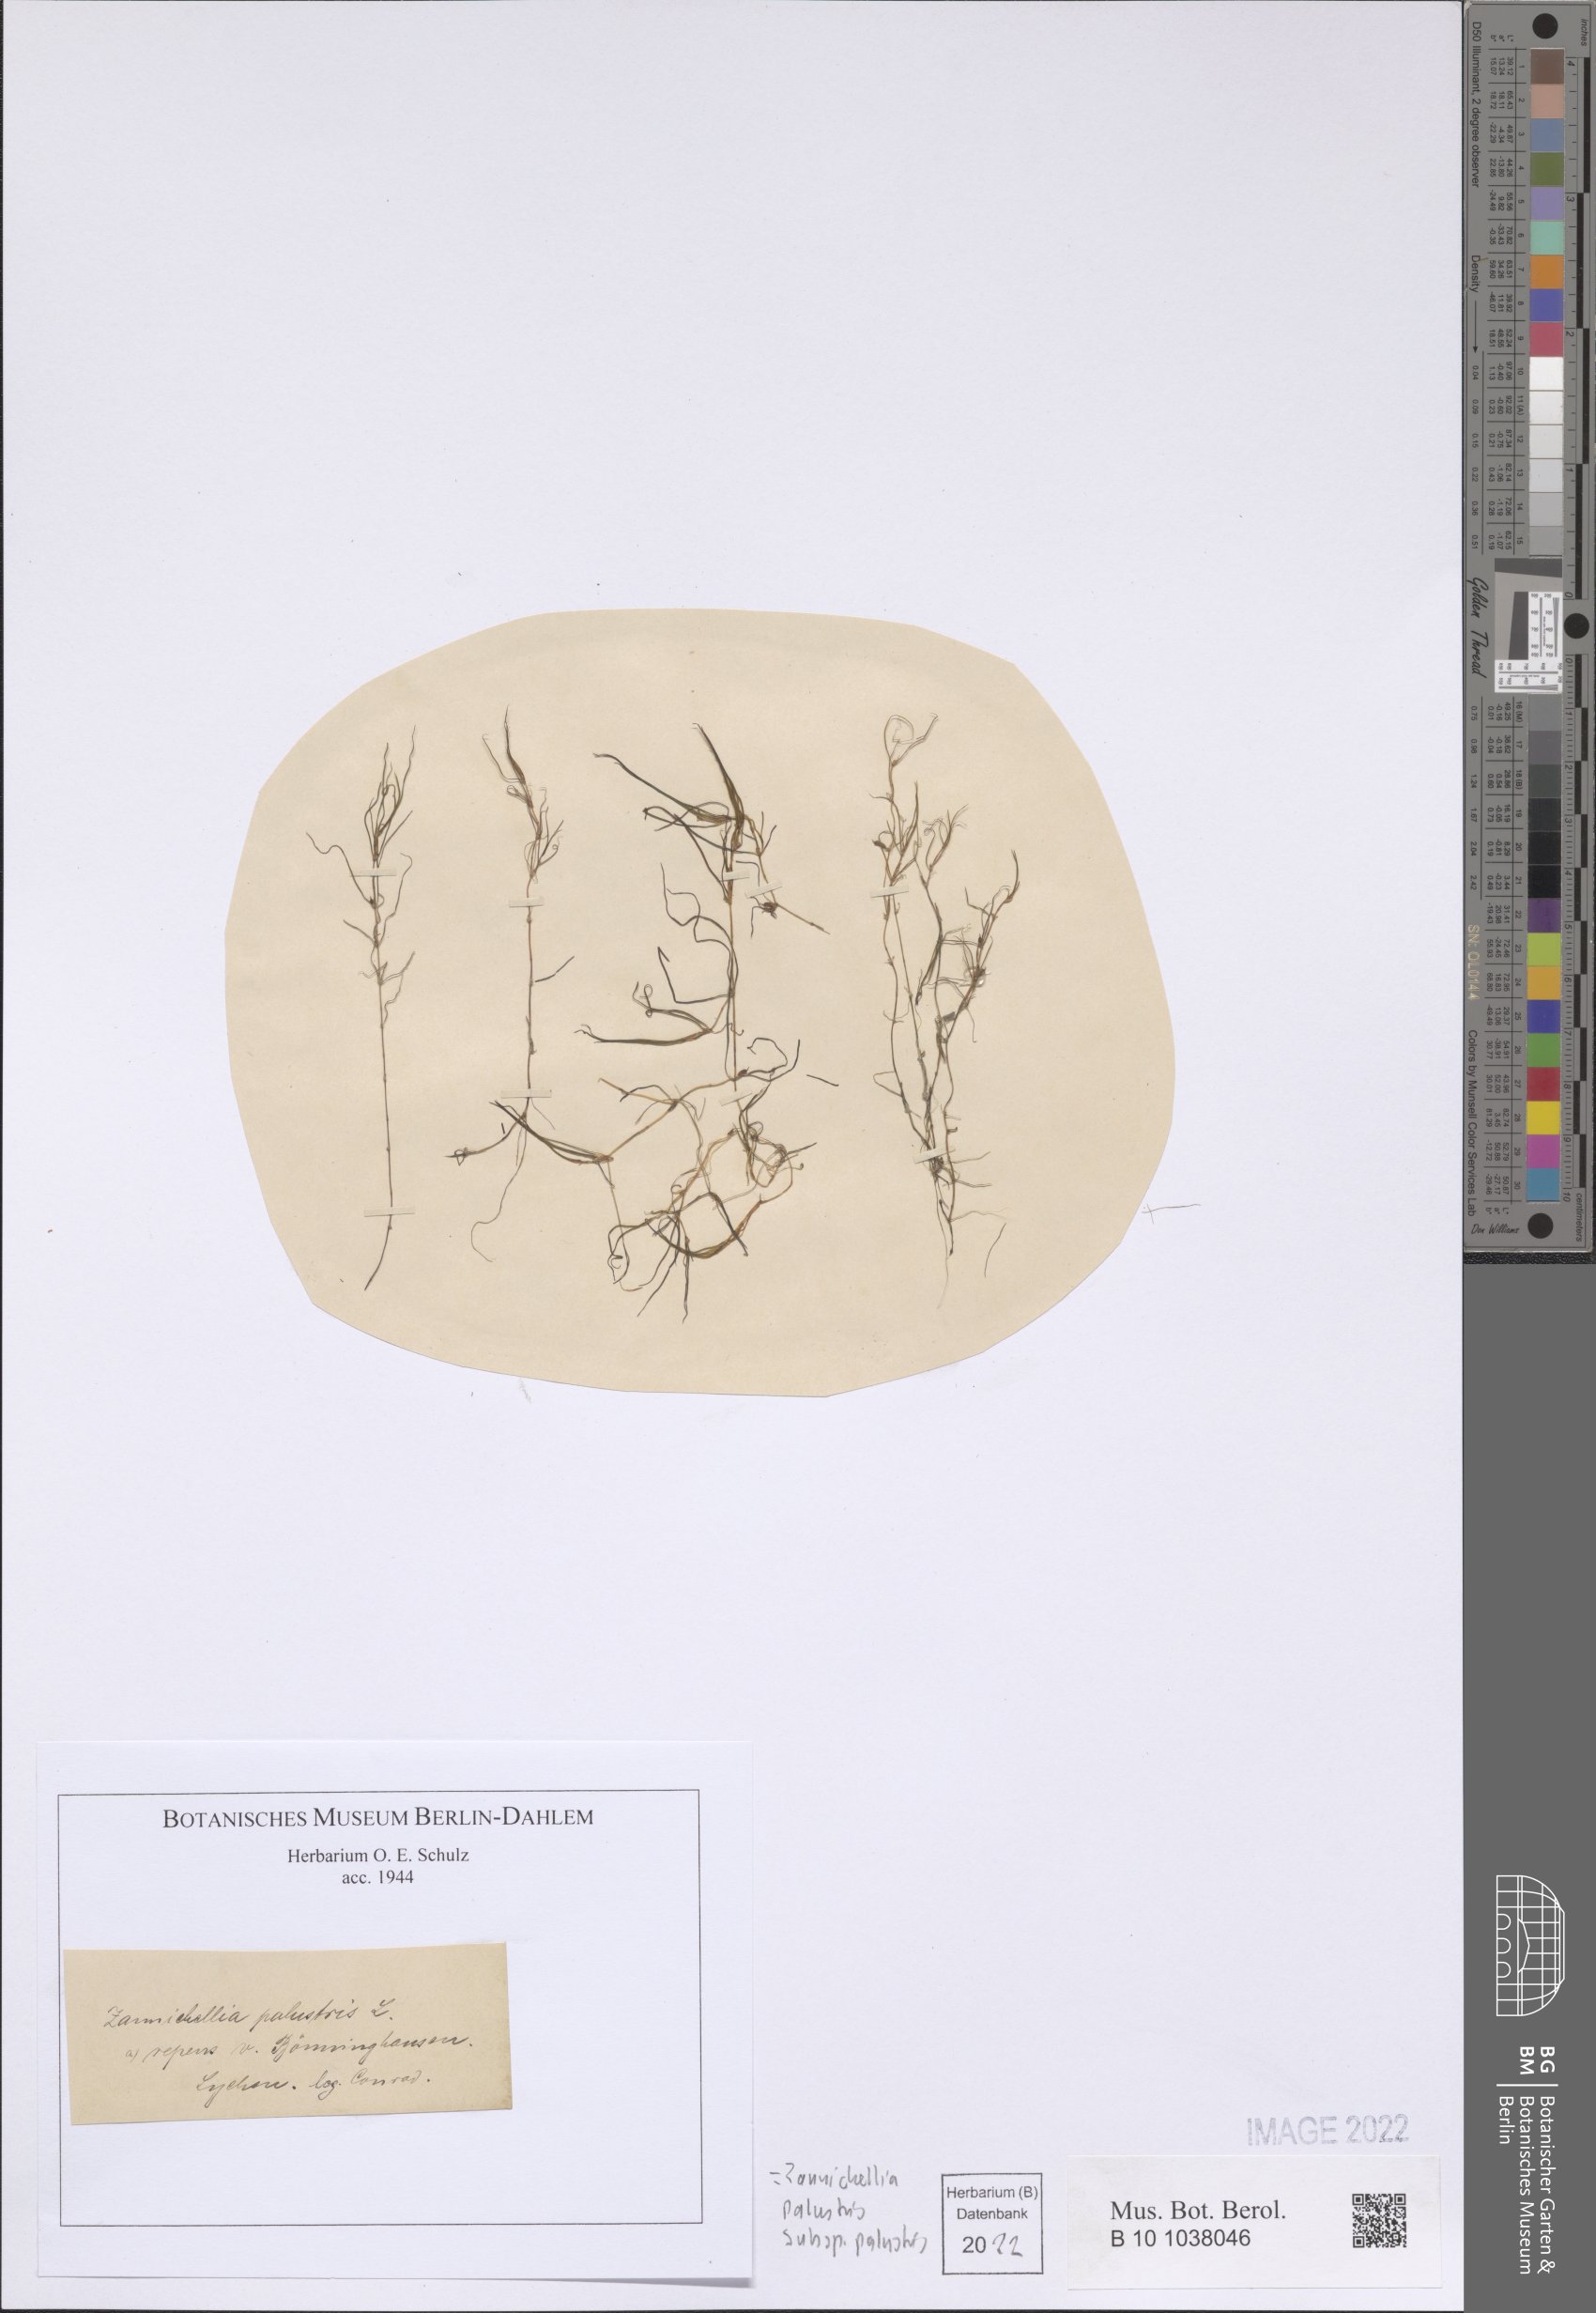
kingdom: Plantae
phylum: Tracheophyta
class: Liliopsida
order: Alismatales
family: Potamogetonaceae
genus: Zannichellia
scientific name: Zannichellia palustris
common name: Horned pondweed
